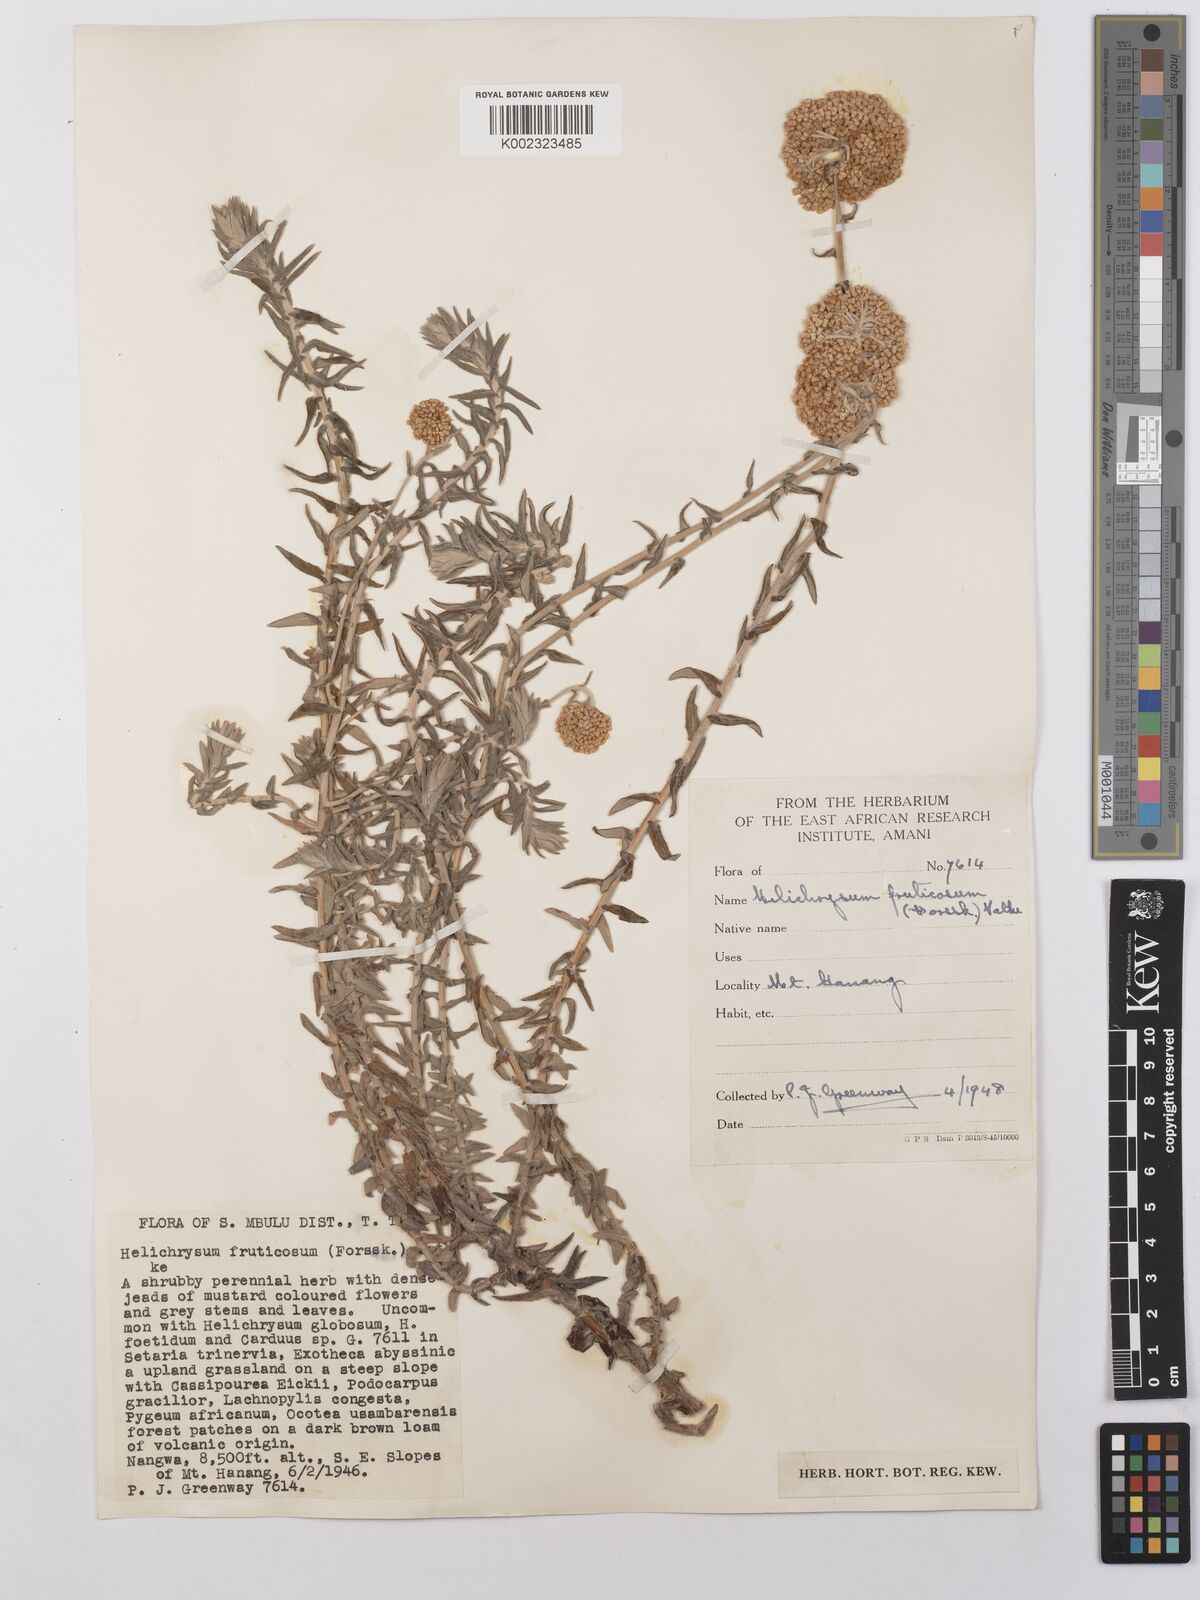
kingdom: Plantae
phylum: Tracheophyta
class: Magnoliopsida
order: Asterales
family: Asteraceae
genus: Helichrysum
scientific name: Helichrysum forskahlii
